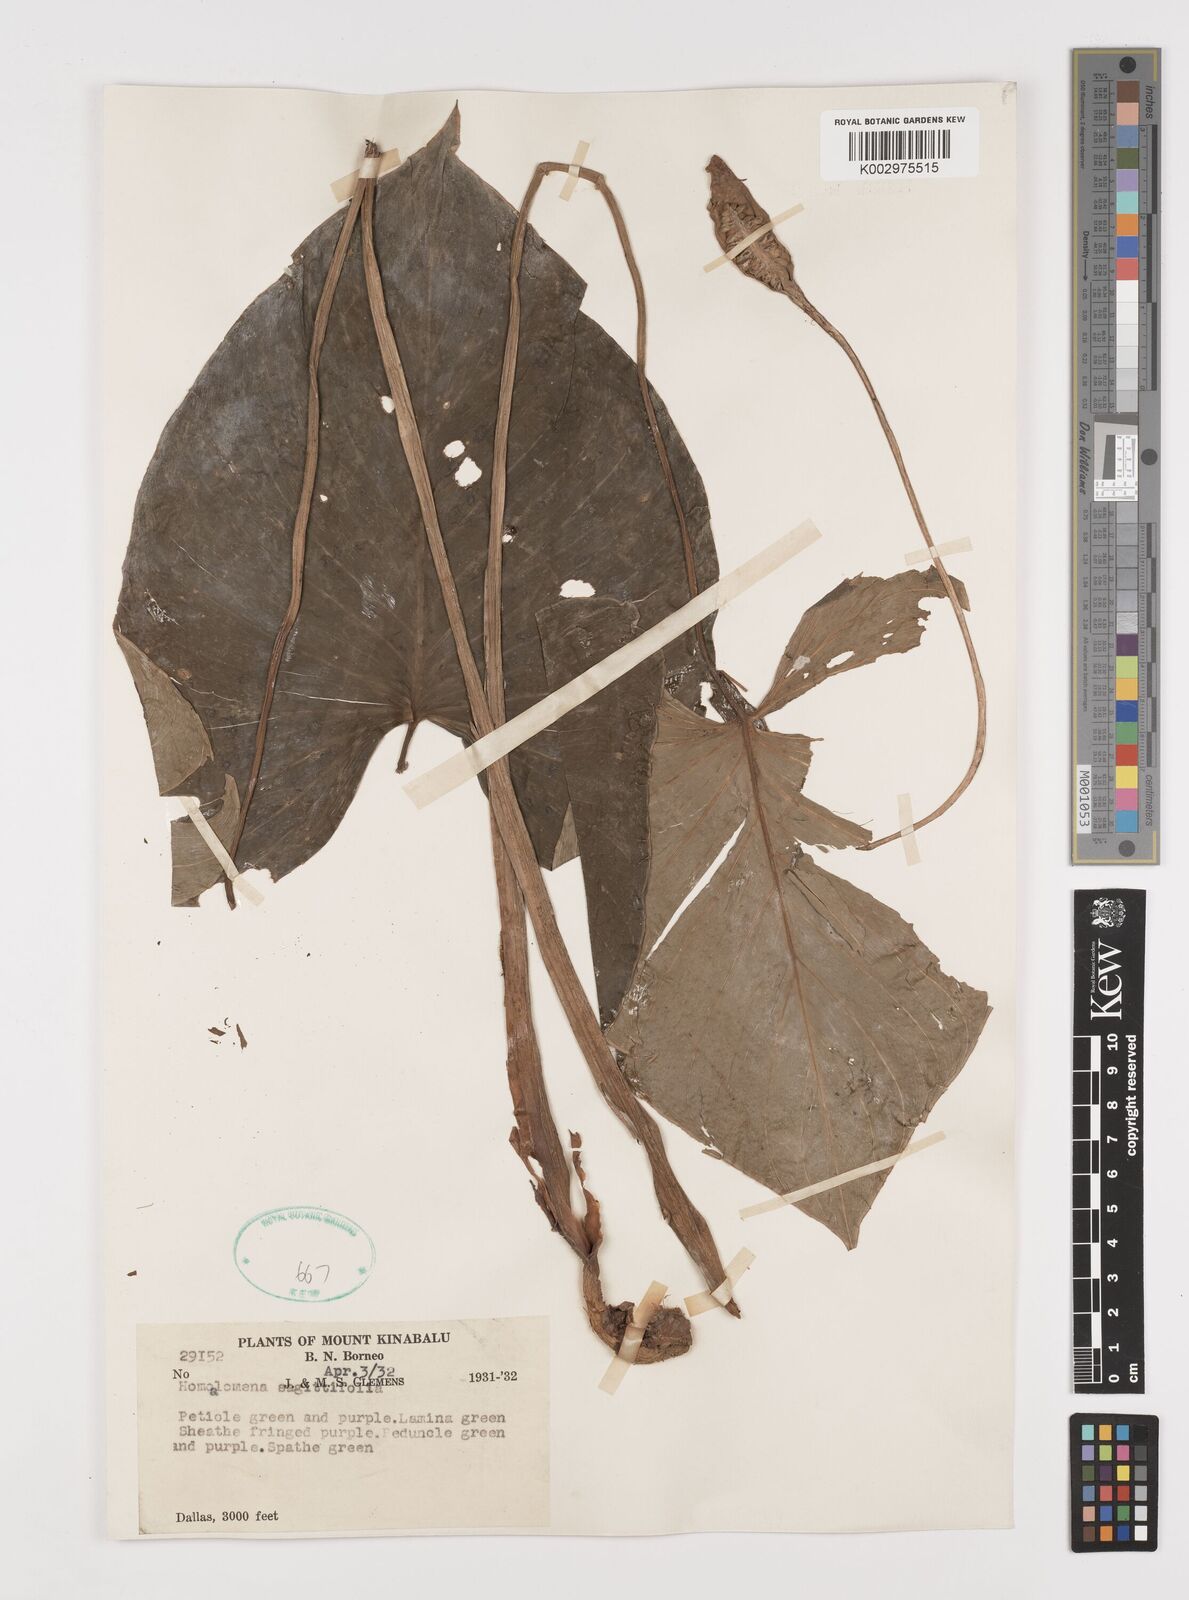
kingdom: Plantae
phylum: Tracheophyta
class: Liliopsida
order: Alismatales
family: Araceae
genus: Homalomena
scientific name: Homalomena rostrata
